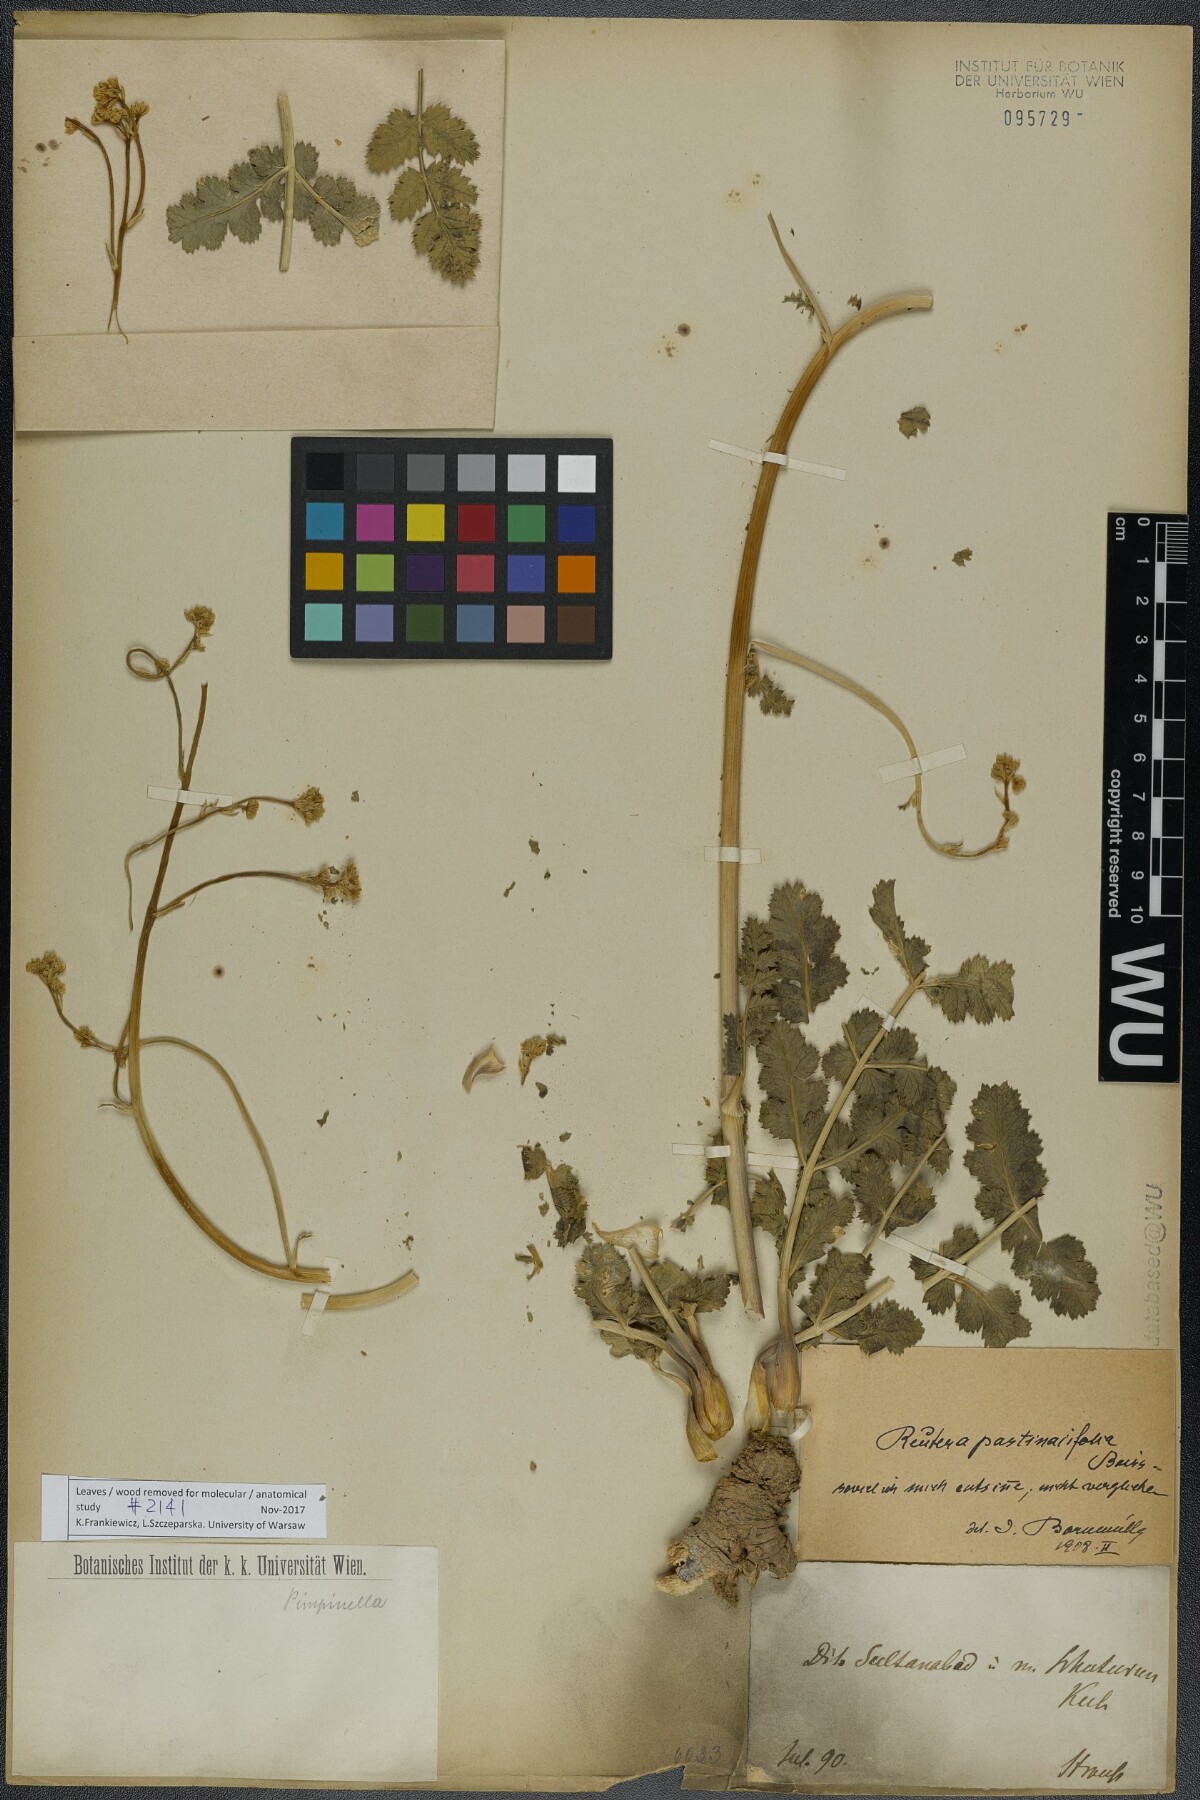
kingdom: Plantae
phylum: Tracheophyta
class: Magnoliopsida
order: Apiales
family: Apiaceae
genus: Pimpinella
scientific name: Pimpinella pastinacifolia
